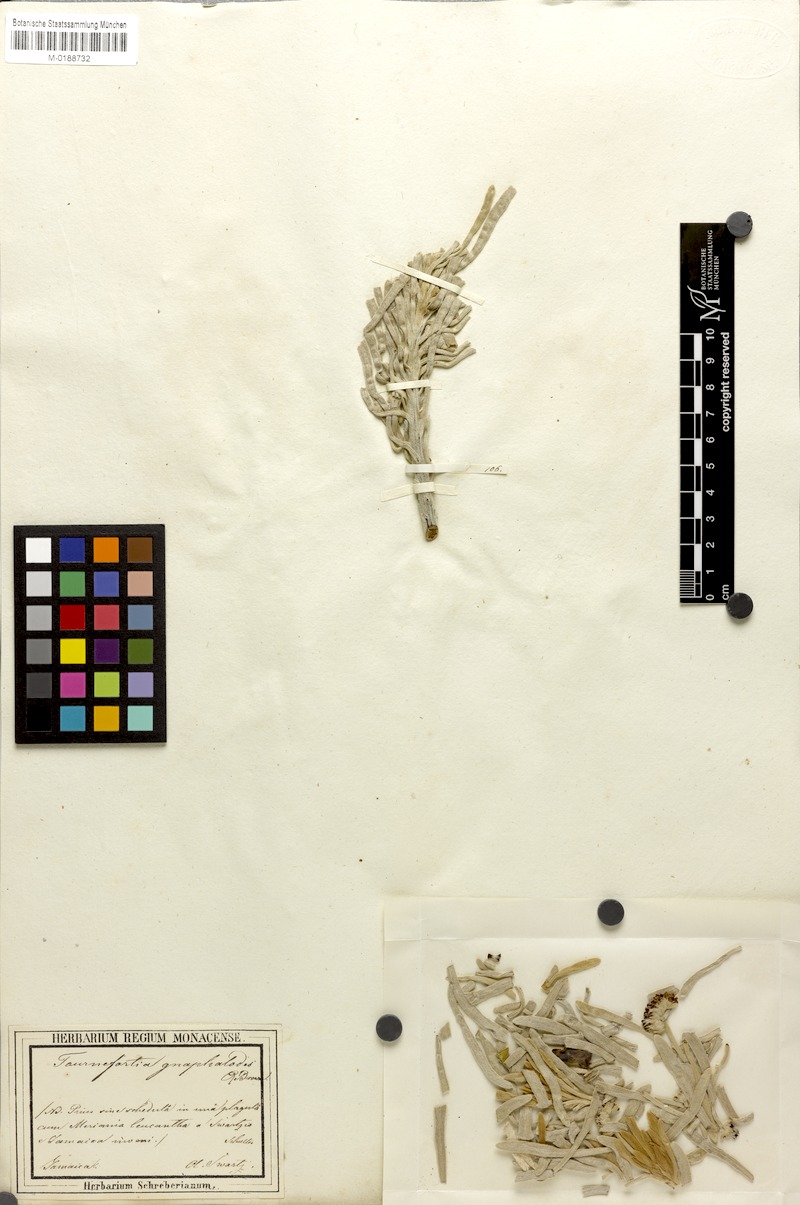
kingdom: Plantae
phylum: Tracheophyta
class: Magnoliopsida
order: Boraginales
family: Heliotropiaceae
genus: Tournefortia
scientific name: Tournefortia gnaphalodes
